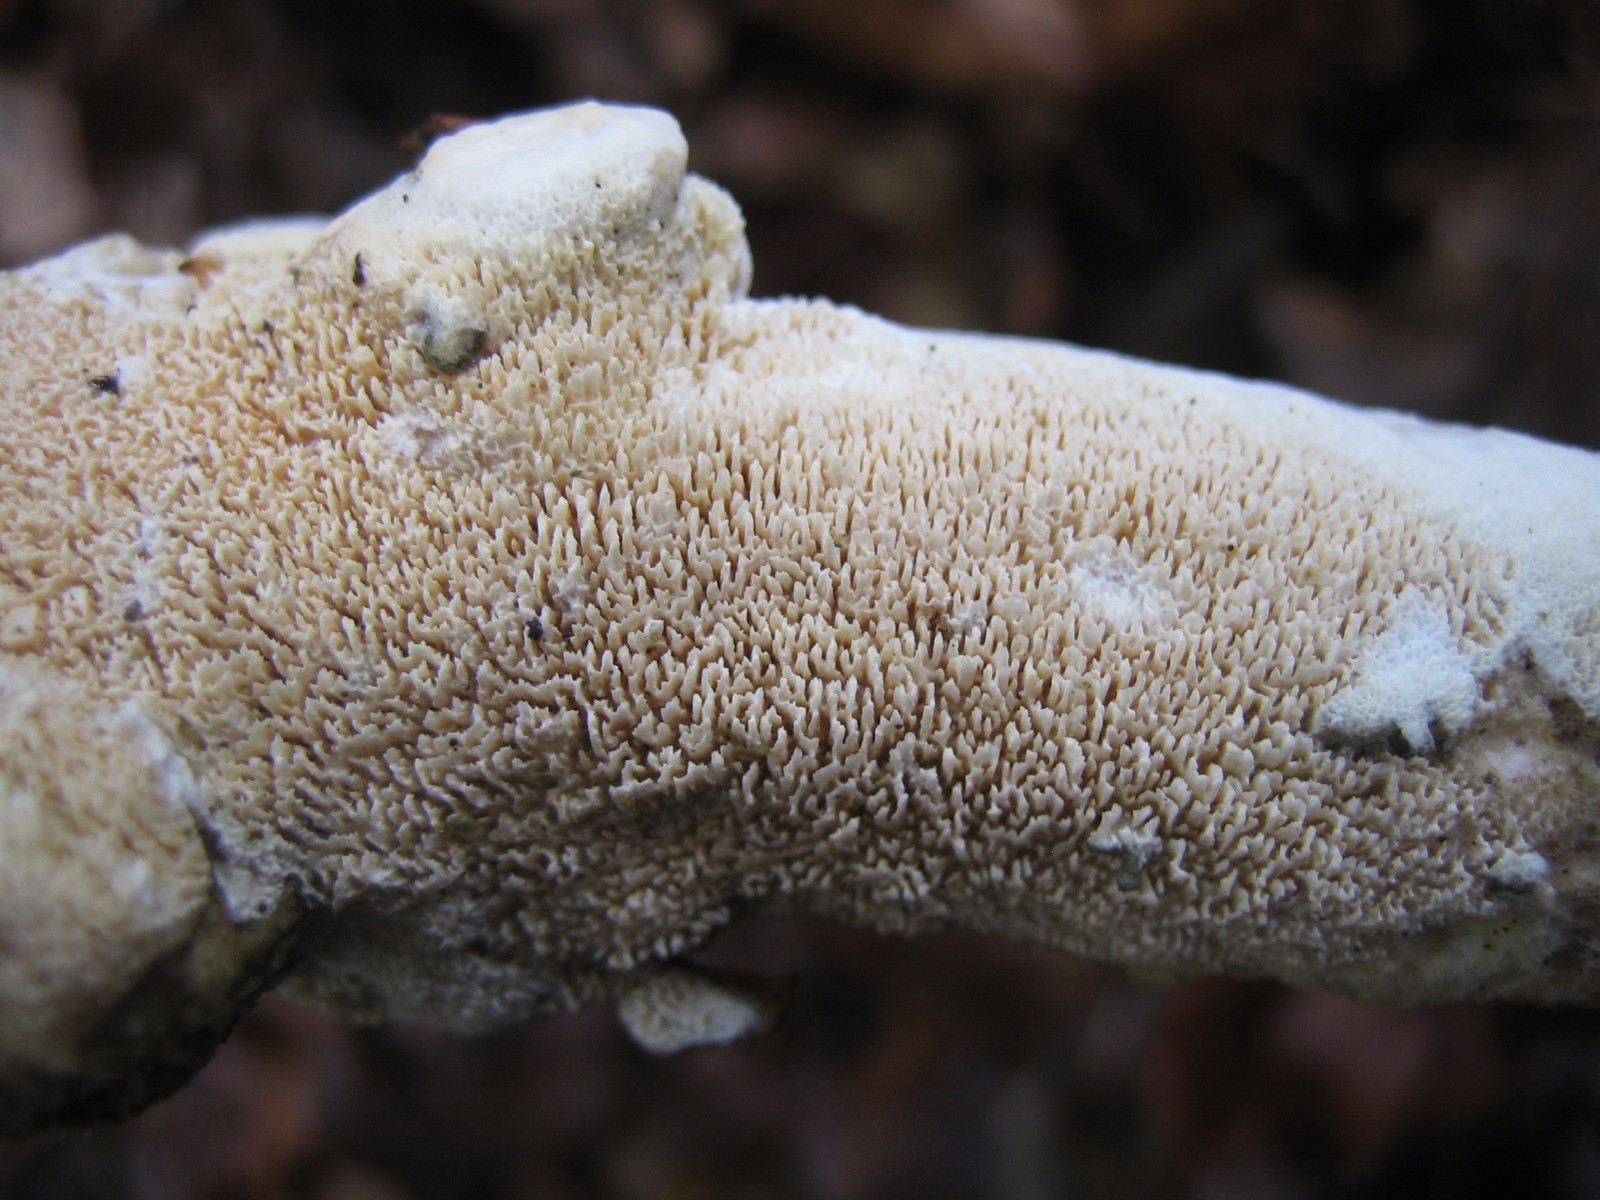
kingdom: Fungi
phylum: Basidiomycota
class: Agaricomycetes
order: Hymenochaetales
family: Schizoporaceae
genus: Xylodon
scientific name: Xylodon subtropicus
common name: labyrint-tandsvamp
